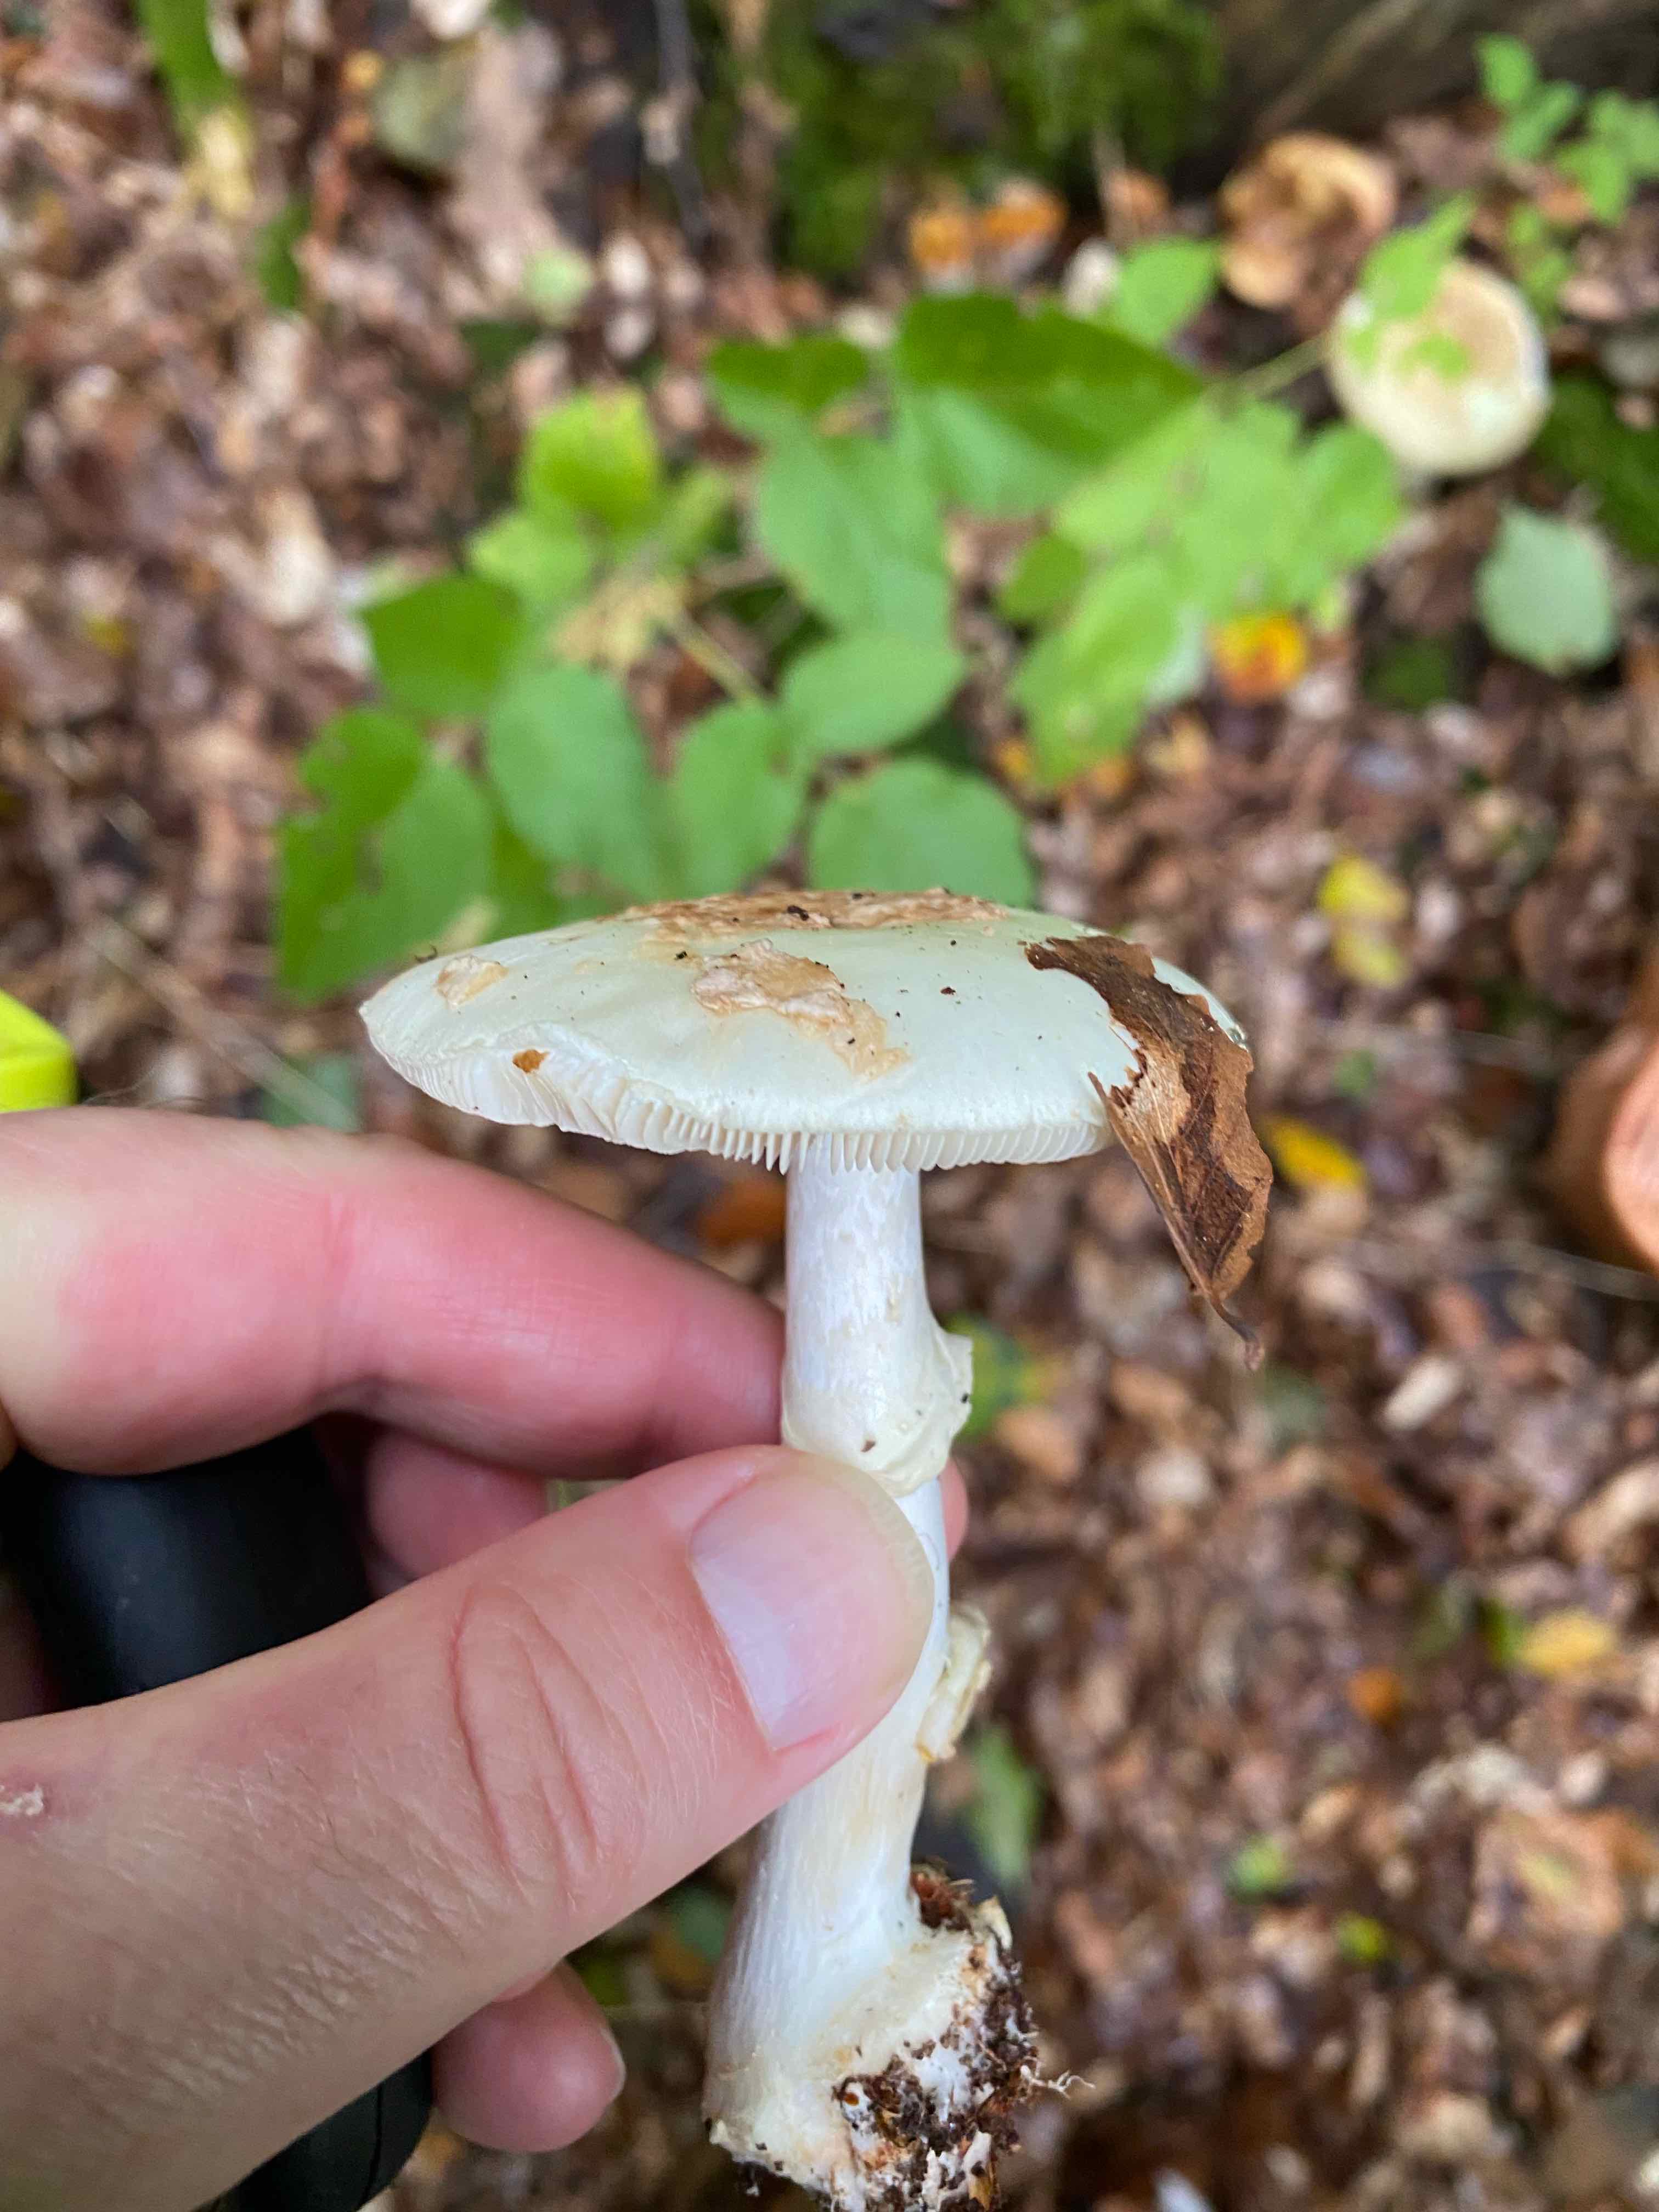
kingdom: Fungi
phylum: Basidiomycota
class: Agaricomycetes
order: Agaricales
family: Amanitaceae
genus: Amanita
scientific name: Amanita citrina
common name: kugleknoldet fluesvamp
